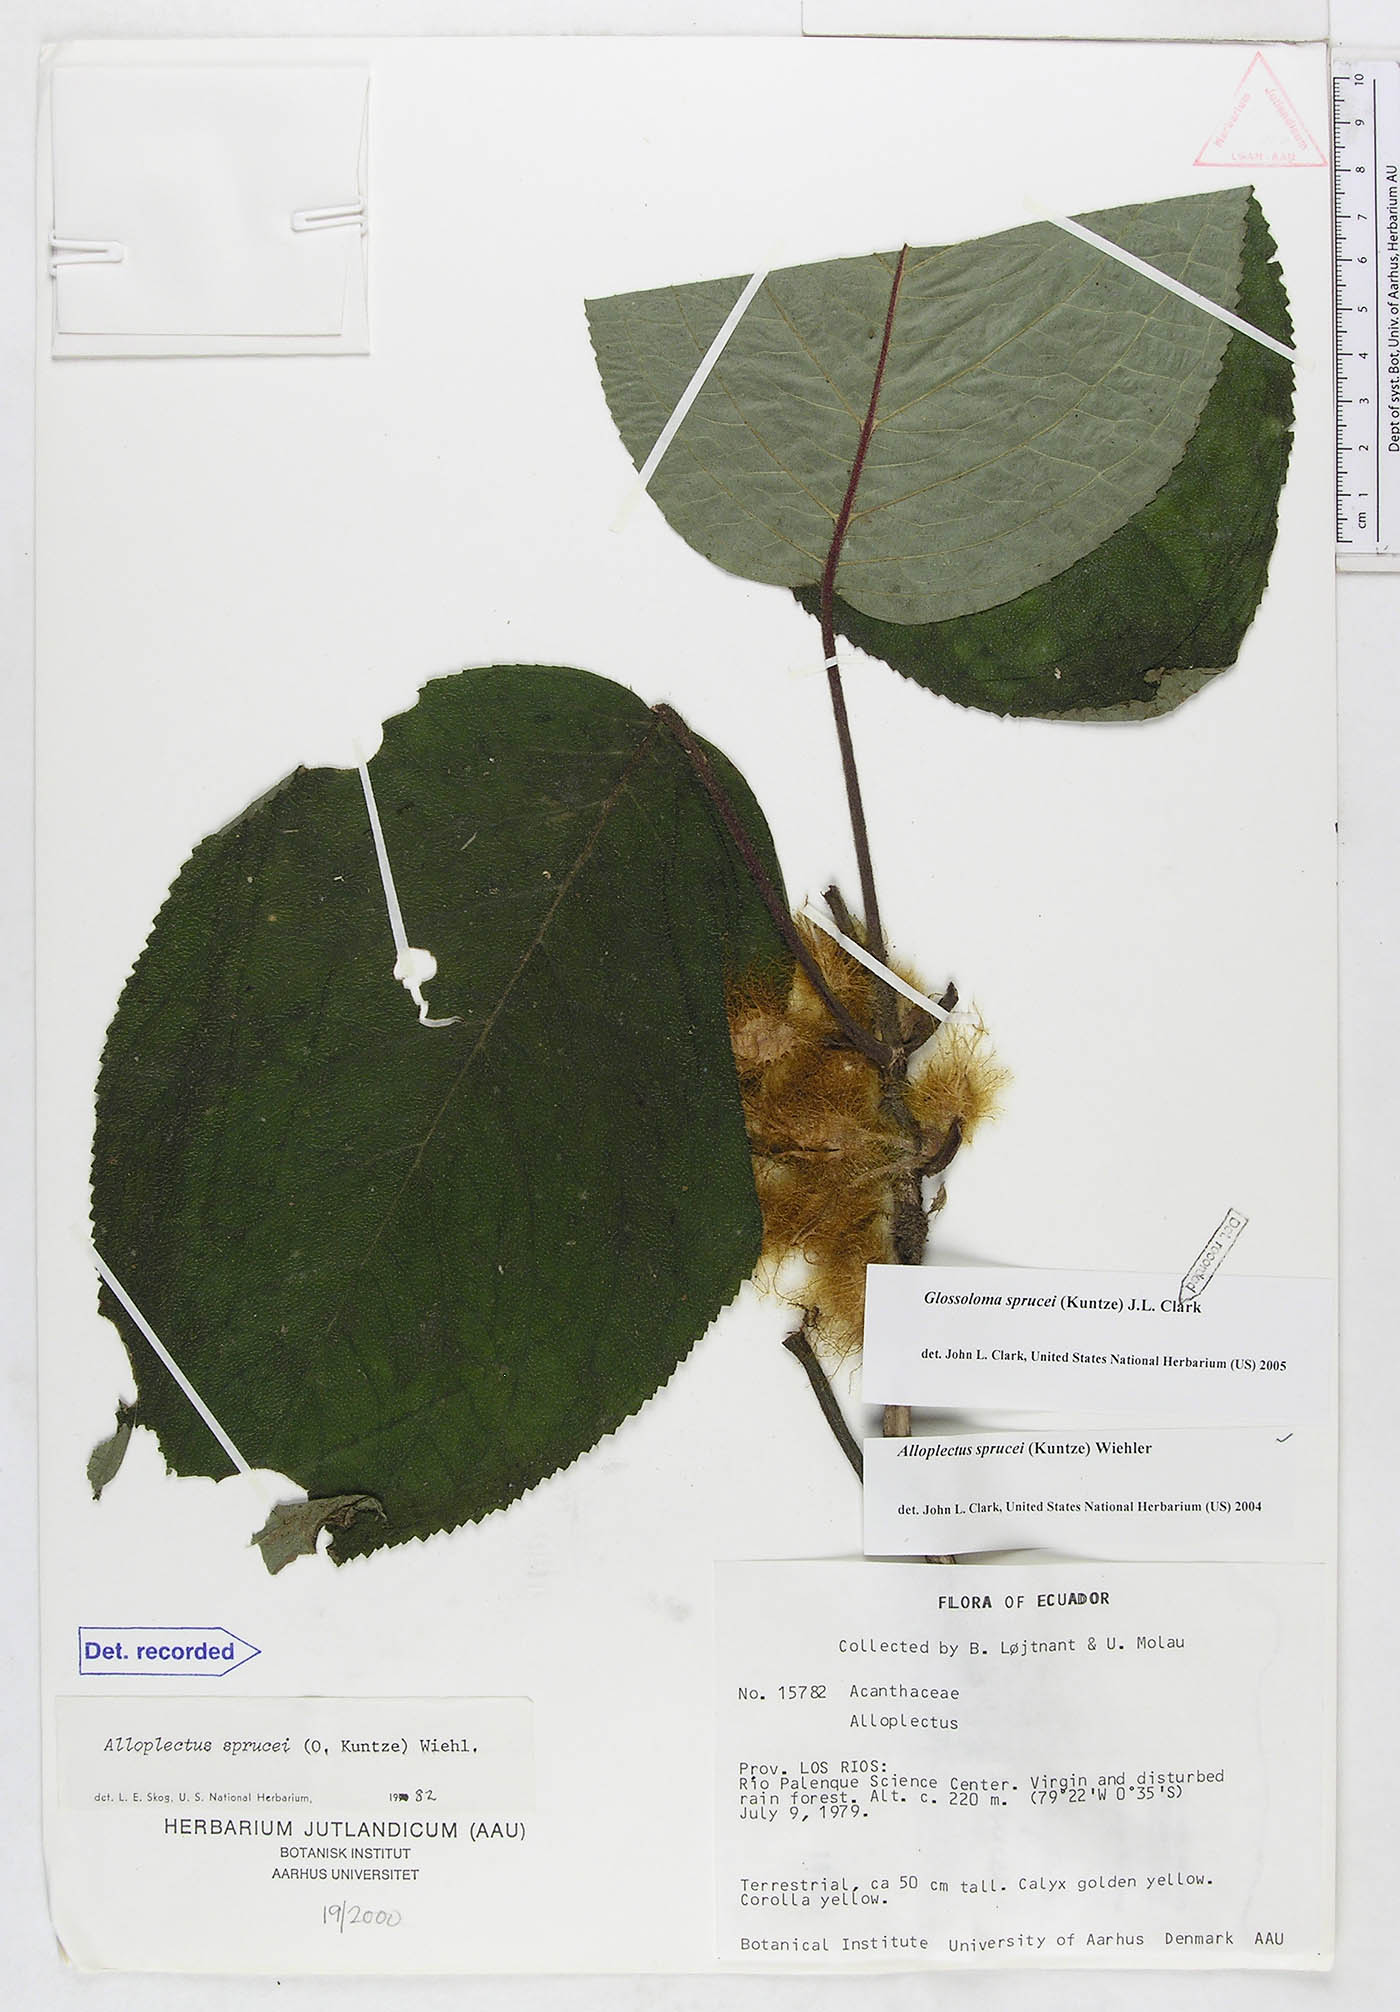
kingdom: Plantae
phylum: Tracheophyta
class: Magnoliopsida
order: Lamiales
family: Gesneriaceae
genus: Glossoloma
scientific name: Glossoloma sprucei
